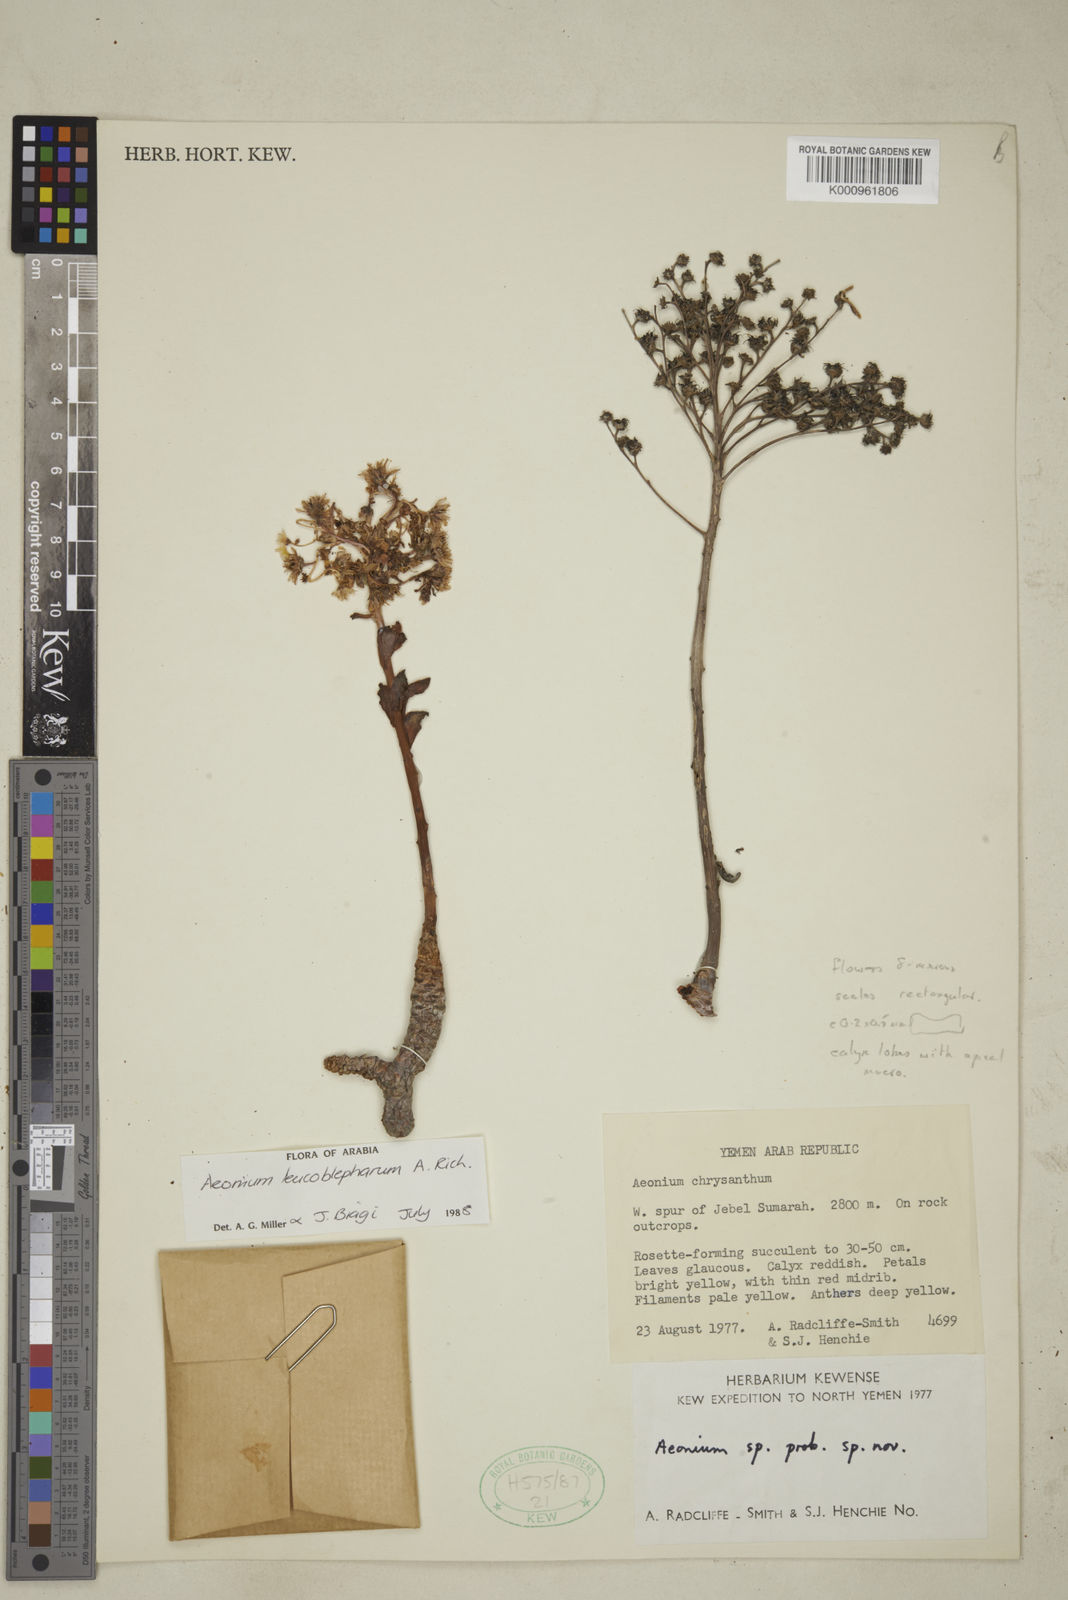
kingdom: Plantae
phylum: Tracheophyta
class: Magnoliopsida
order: Saxifragales
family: Crassulaceae
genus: Aeonium
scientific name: Aeonium leucoblepharum
